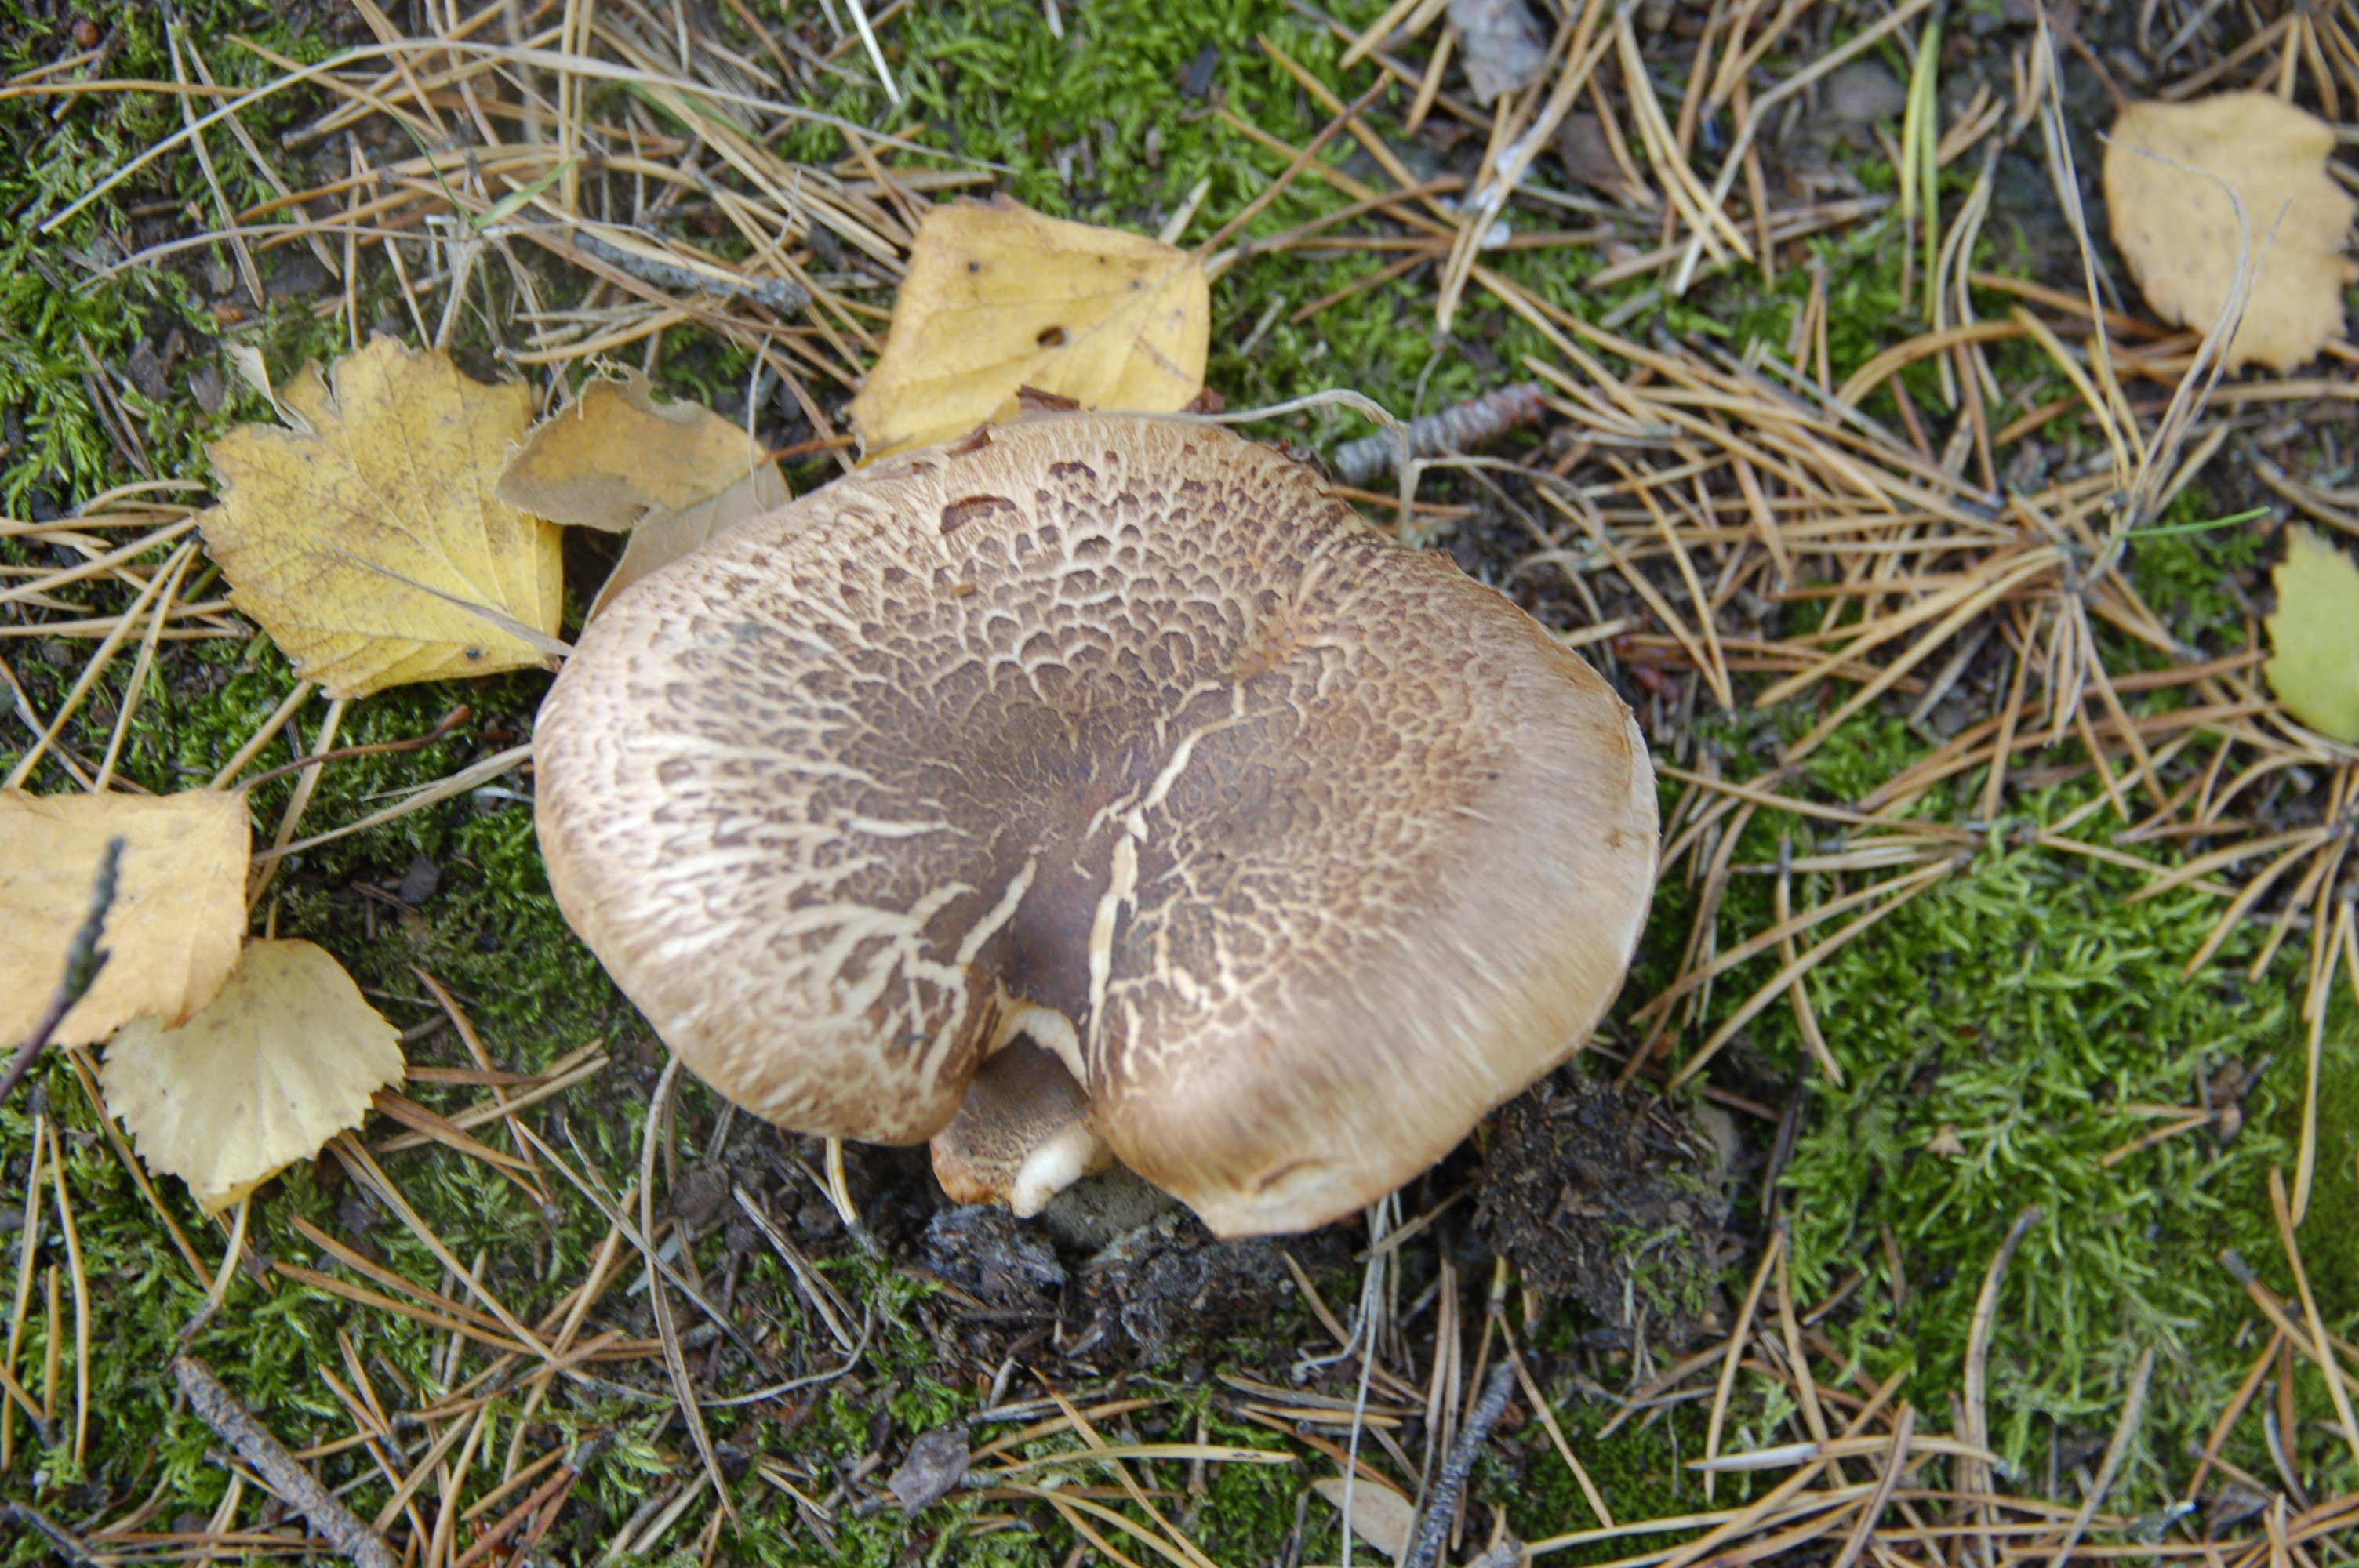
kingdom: Fungi
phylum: Basidiomycota
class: Agaricomycetes
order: Agaricales
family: Tricholomataceae
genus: Tricholoma
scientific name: Tricholoma focale
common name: Booted knight
